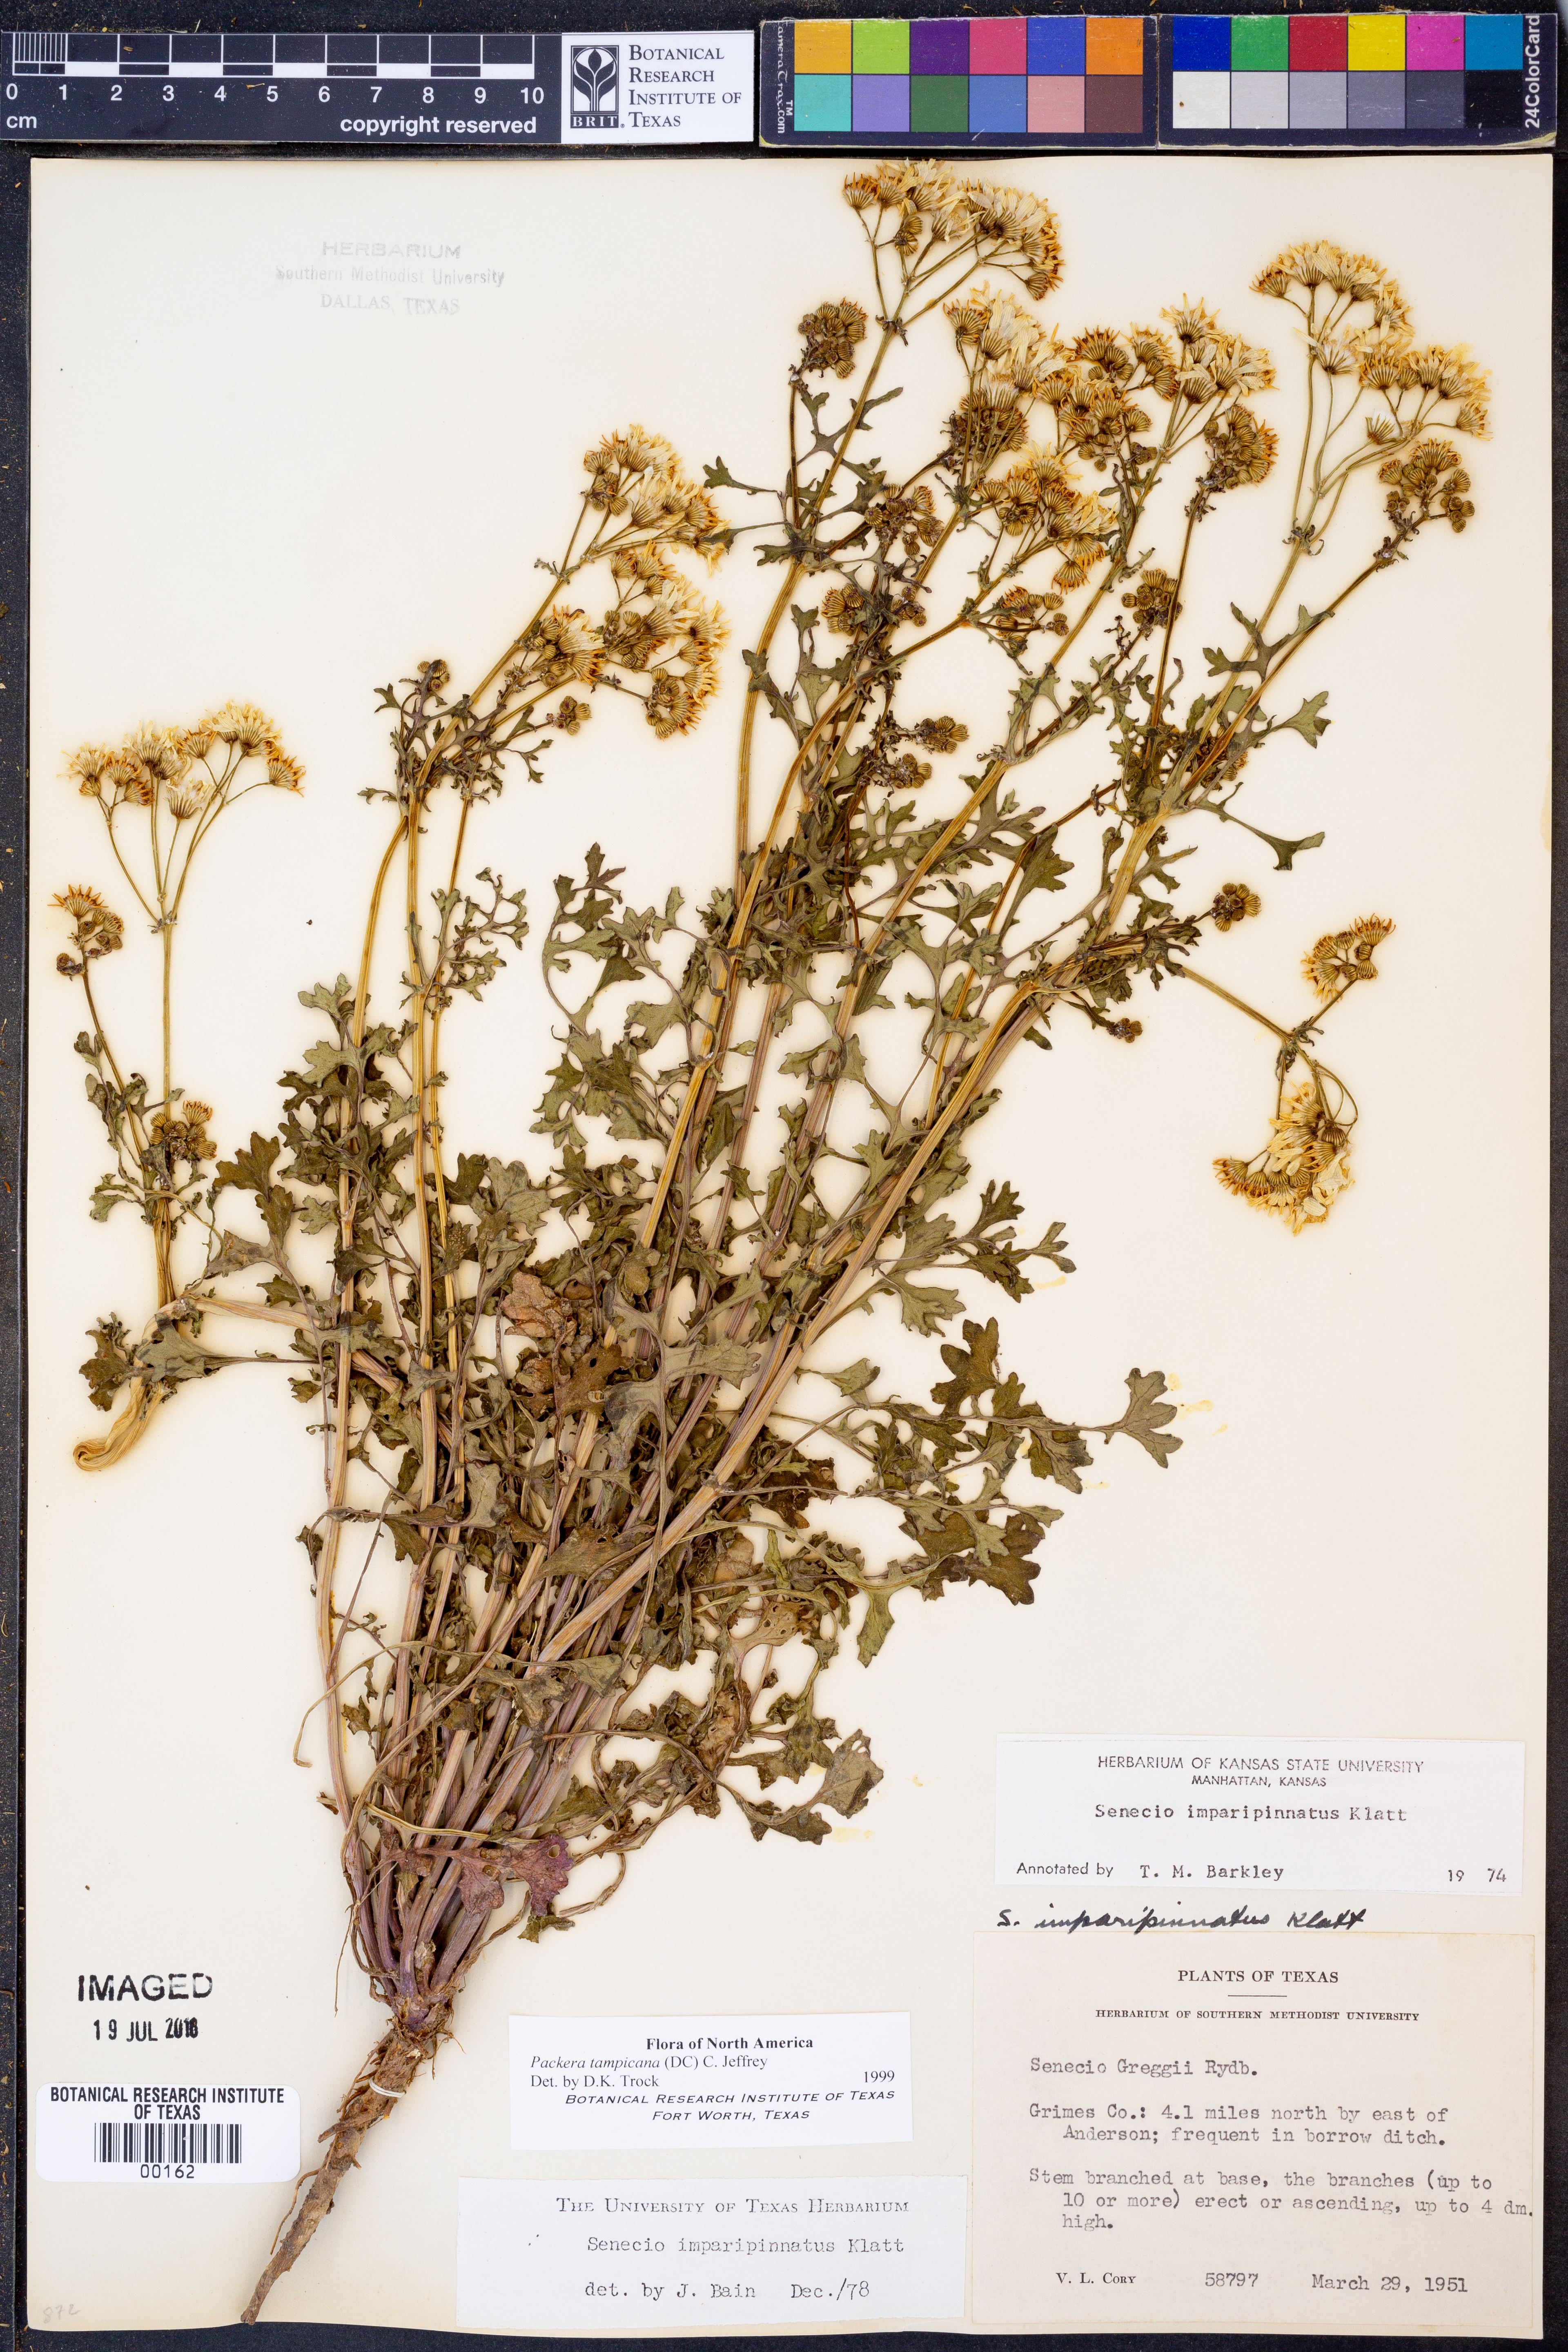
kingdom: Plantae
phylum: Tracheophyta
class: Magnoliopsida
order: Asterales
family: Asteraceae
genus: Packera
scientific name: Packera tampicana
